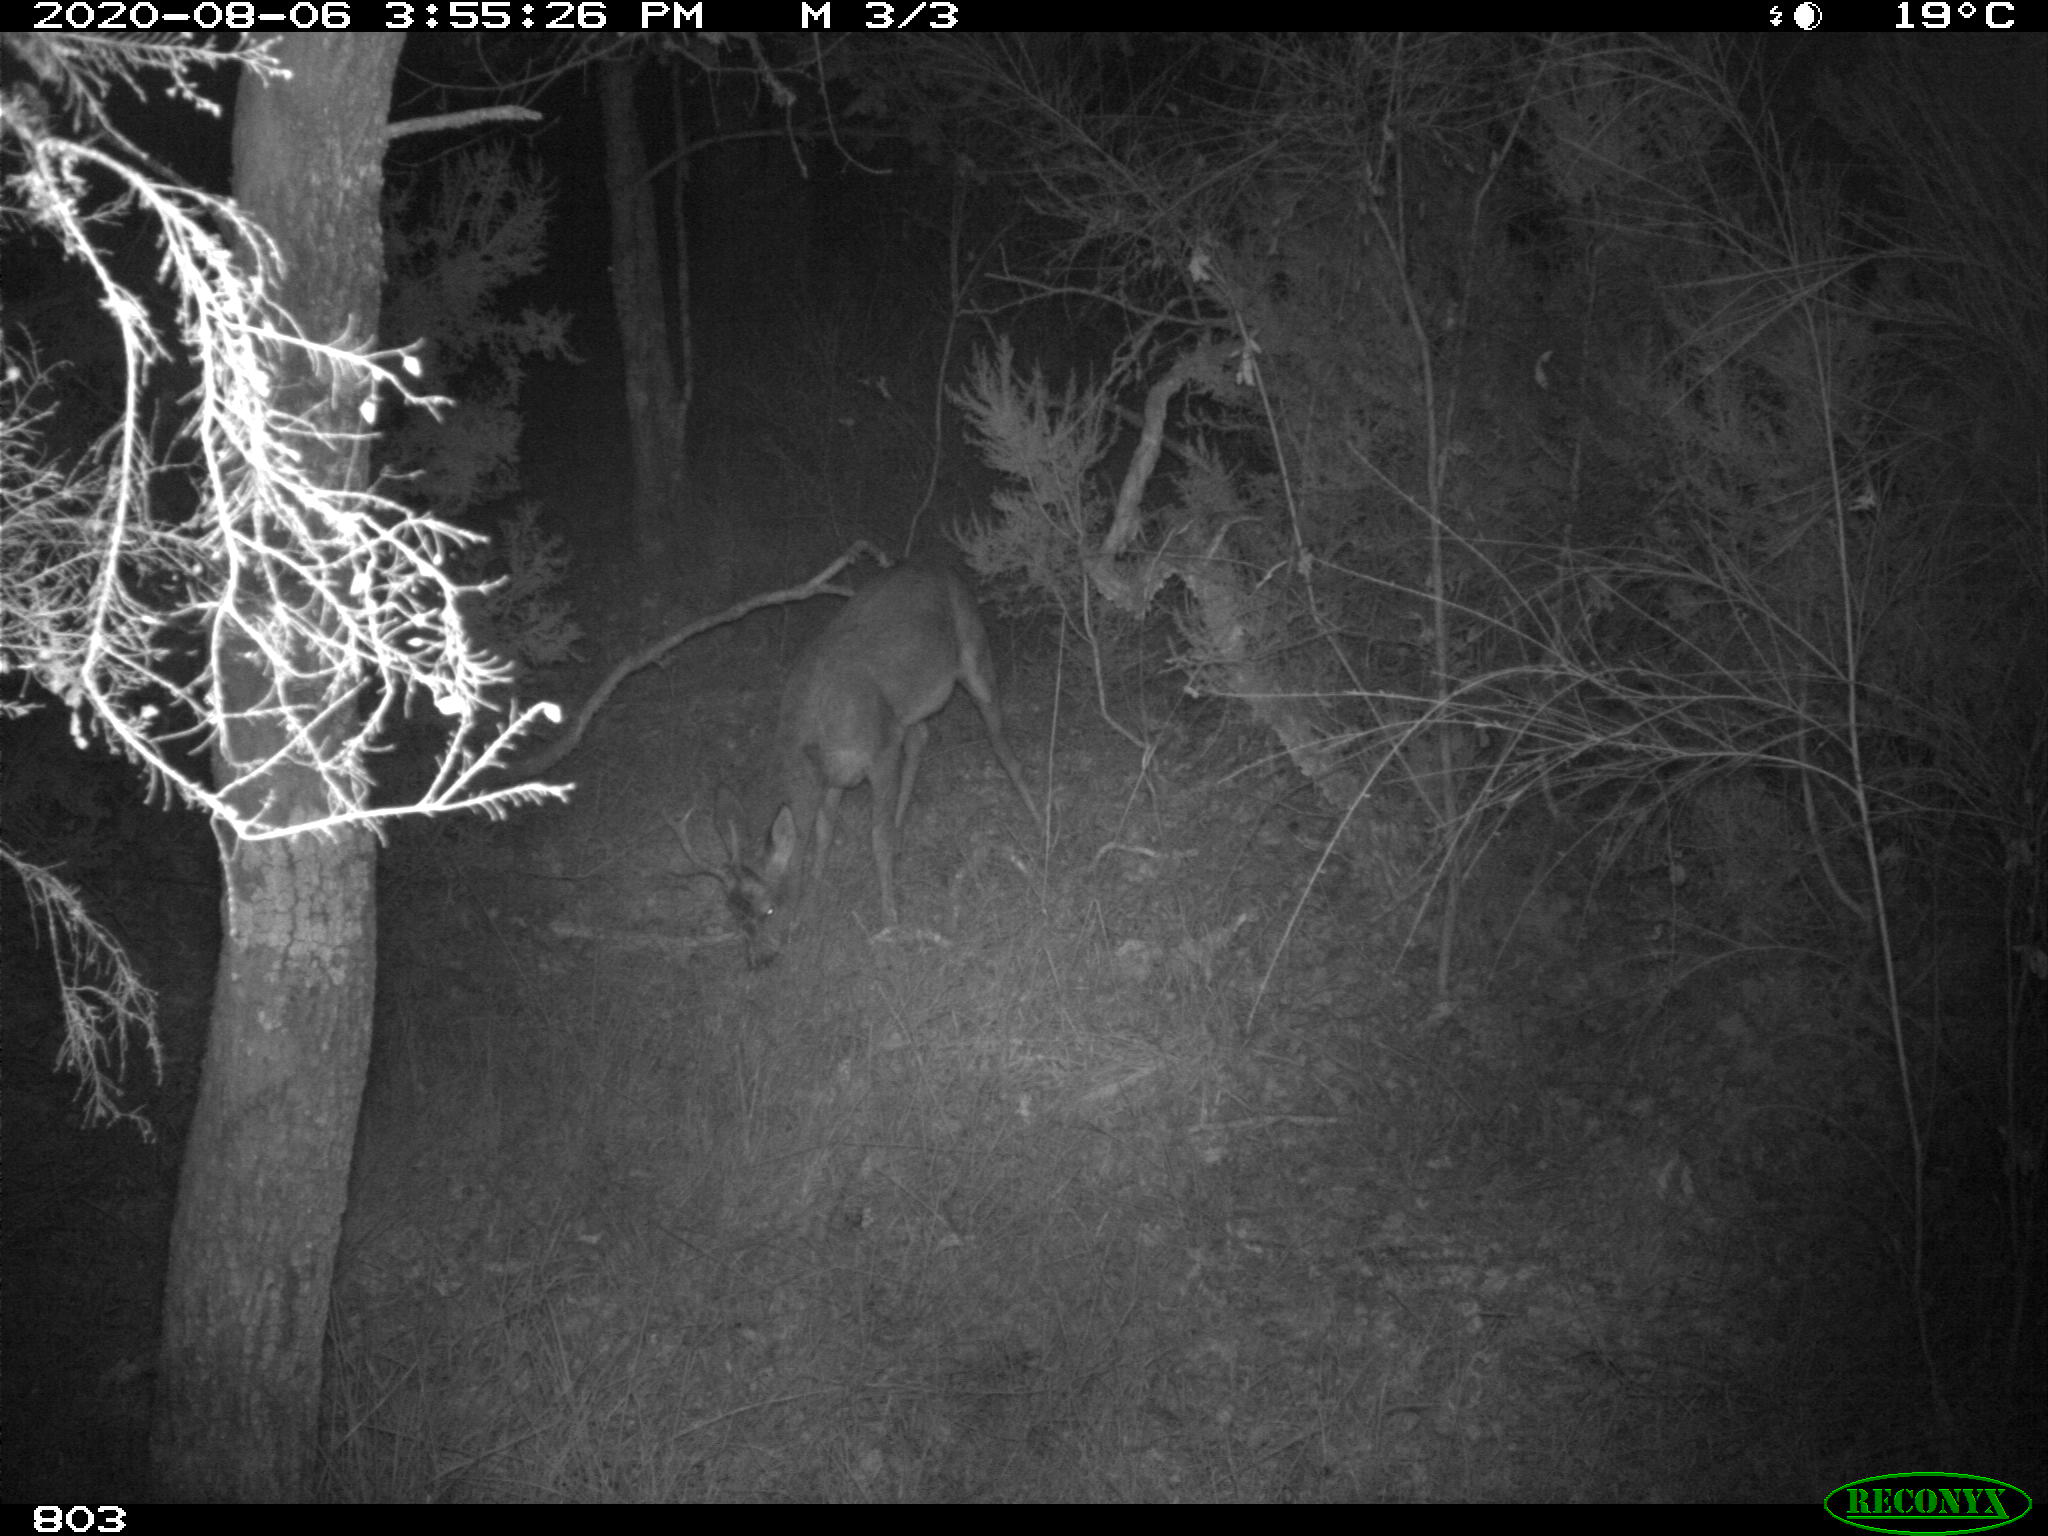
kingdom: Animalia
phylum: Chordata
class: Mammalia
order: Artiodactyla
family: Cervidae
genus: Capreolus
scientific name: Capreolus capreolus
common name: Western roe deer
